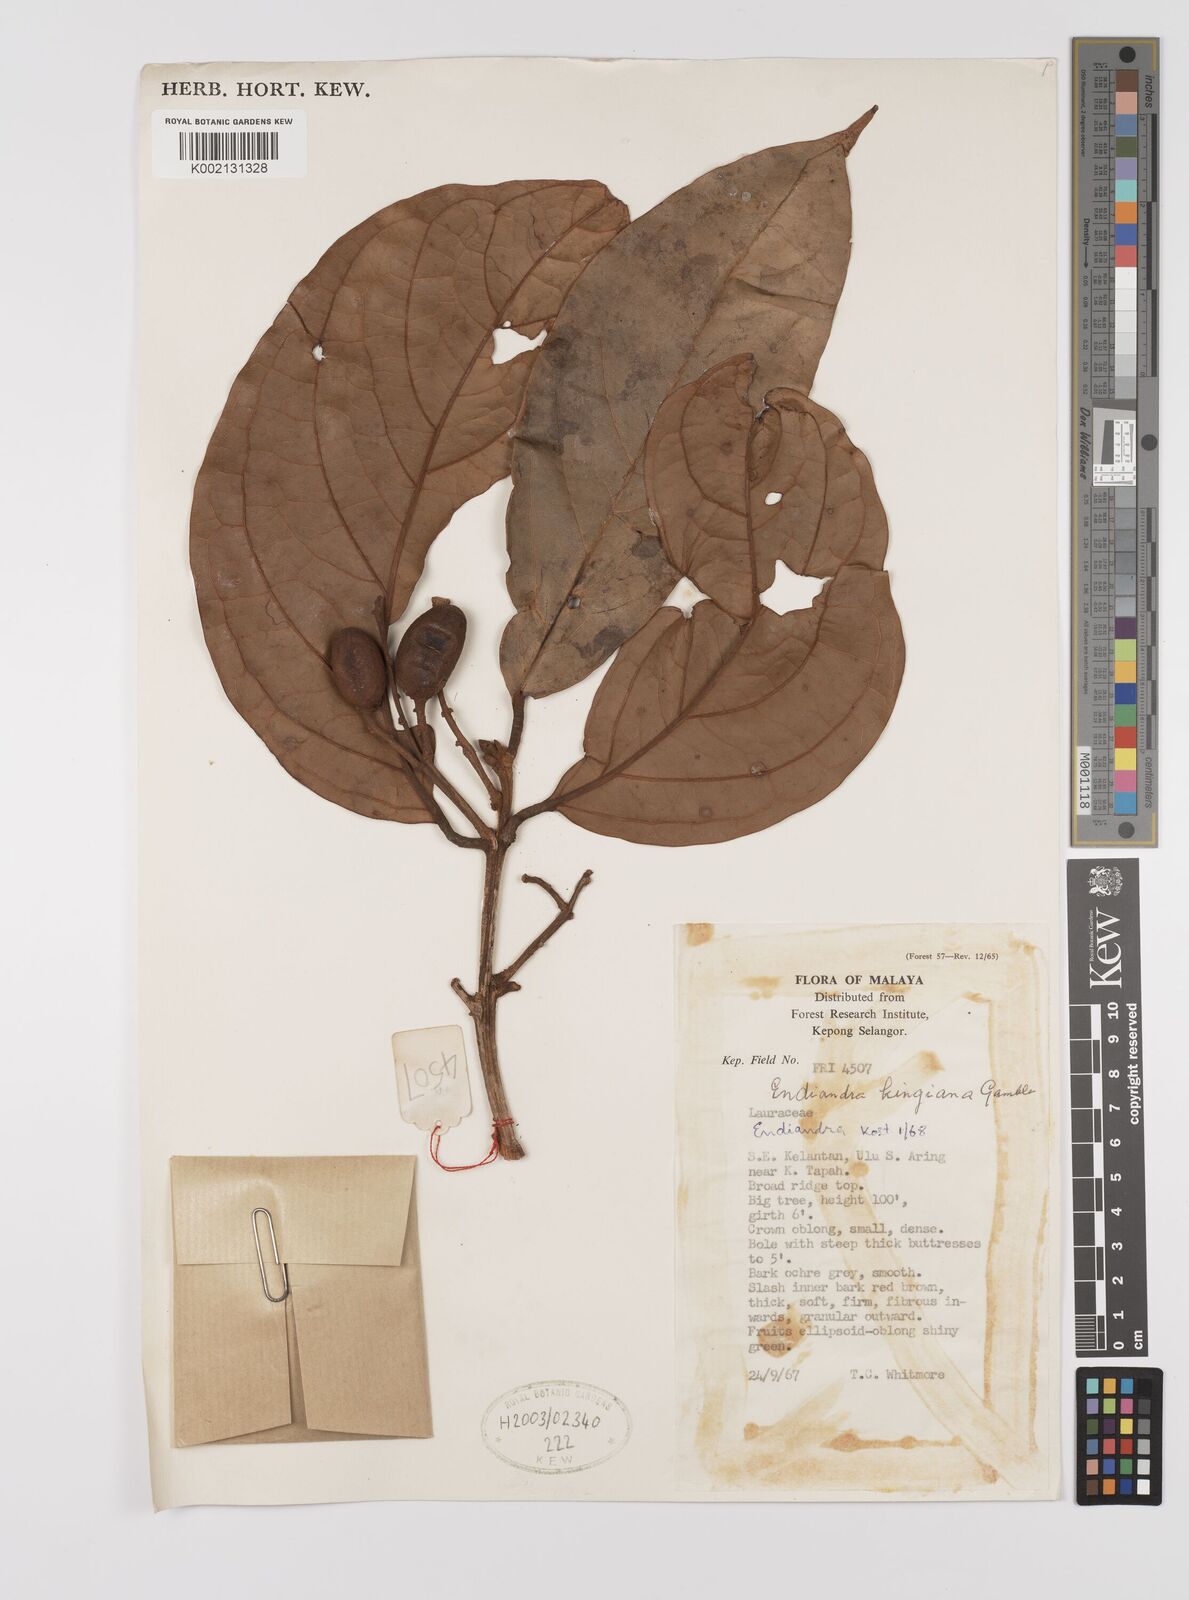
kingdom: Plantae
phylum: Tracheophyta
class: Magnoliopsida
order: Laurales
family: Lauraceae
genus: Endiandra
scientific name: Endiandra kingiana
